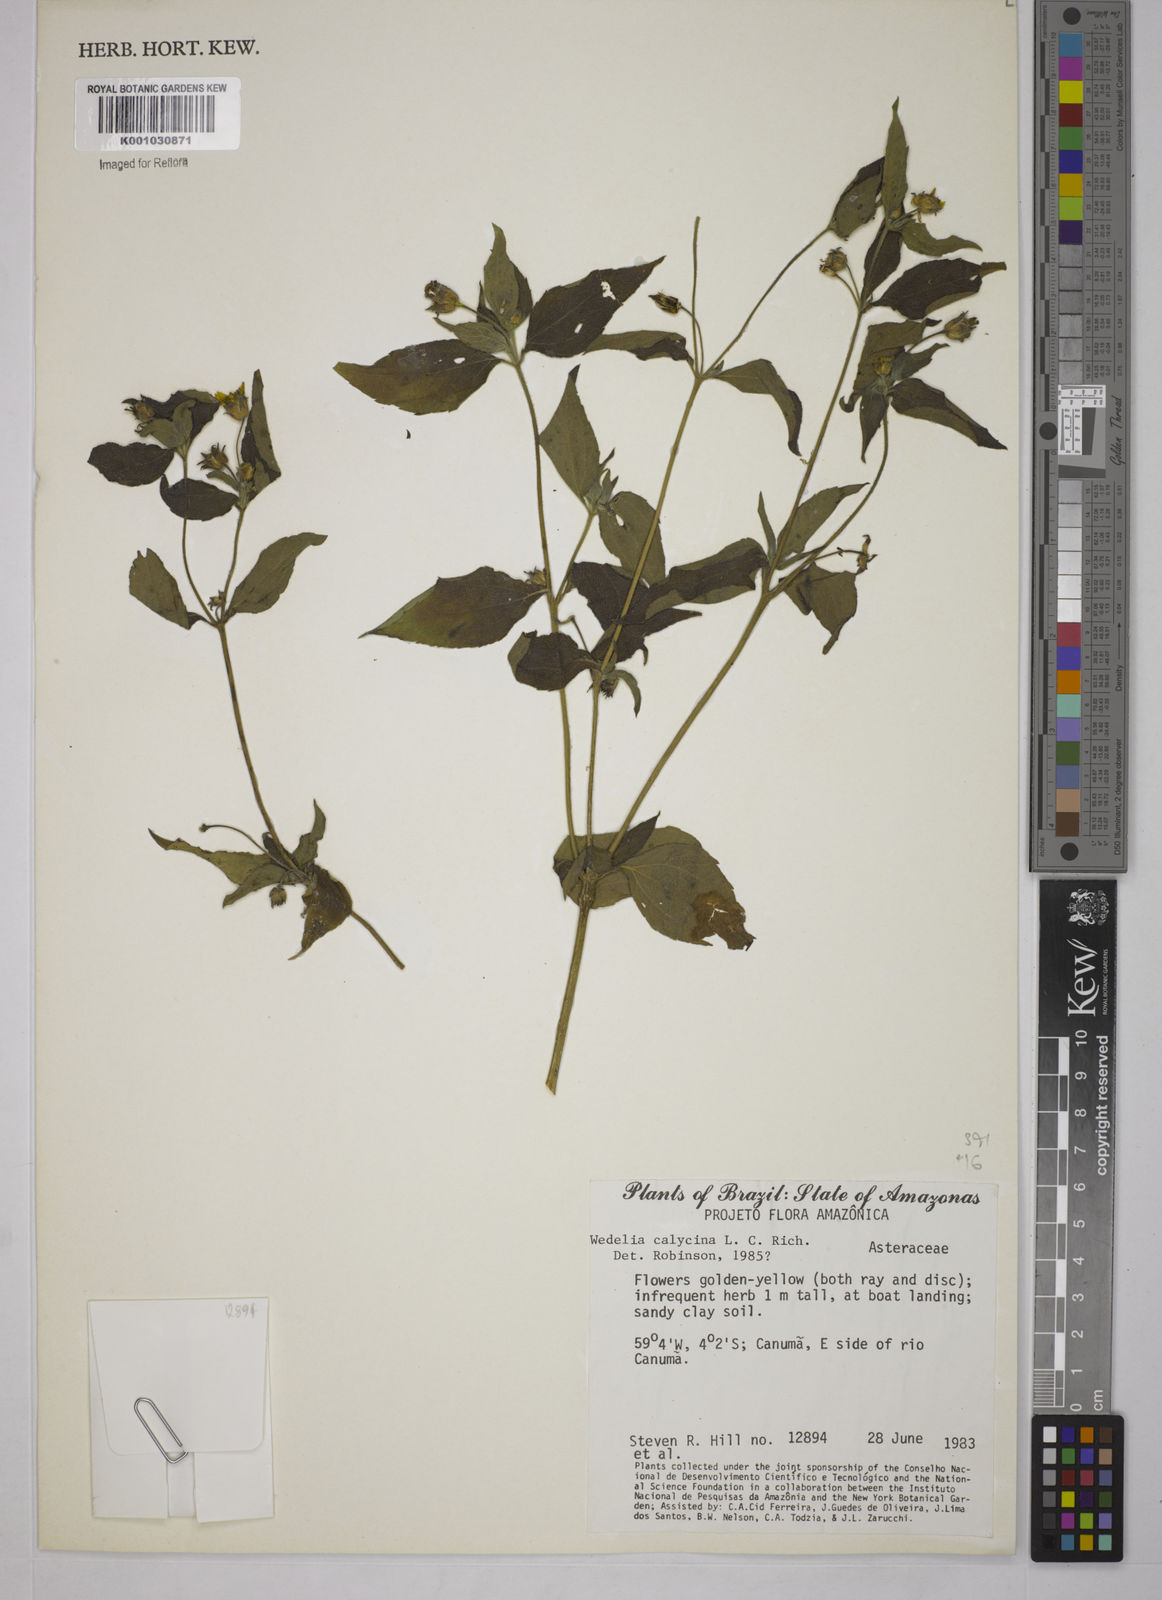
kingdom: Plantae
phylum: Tracheophyta
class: Magnoliopsida
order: Asterales
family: Asteraceae
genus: Wedelia
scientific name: Wedelia
